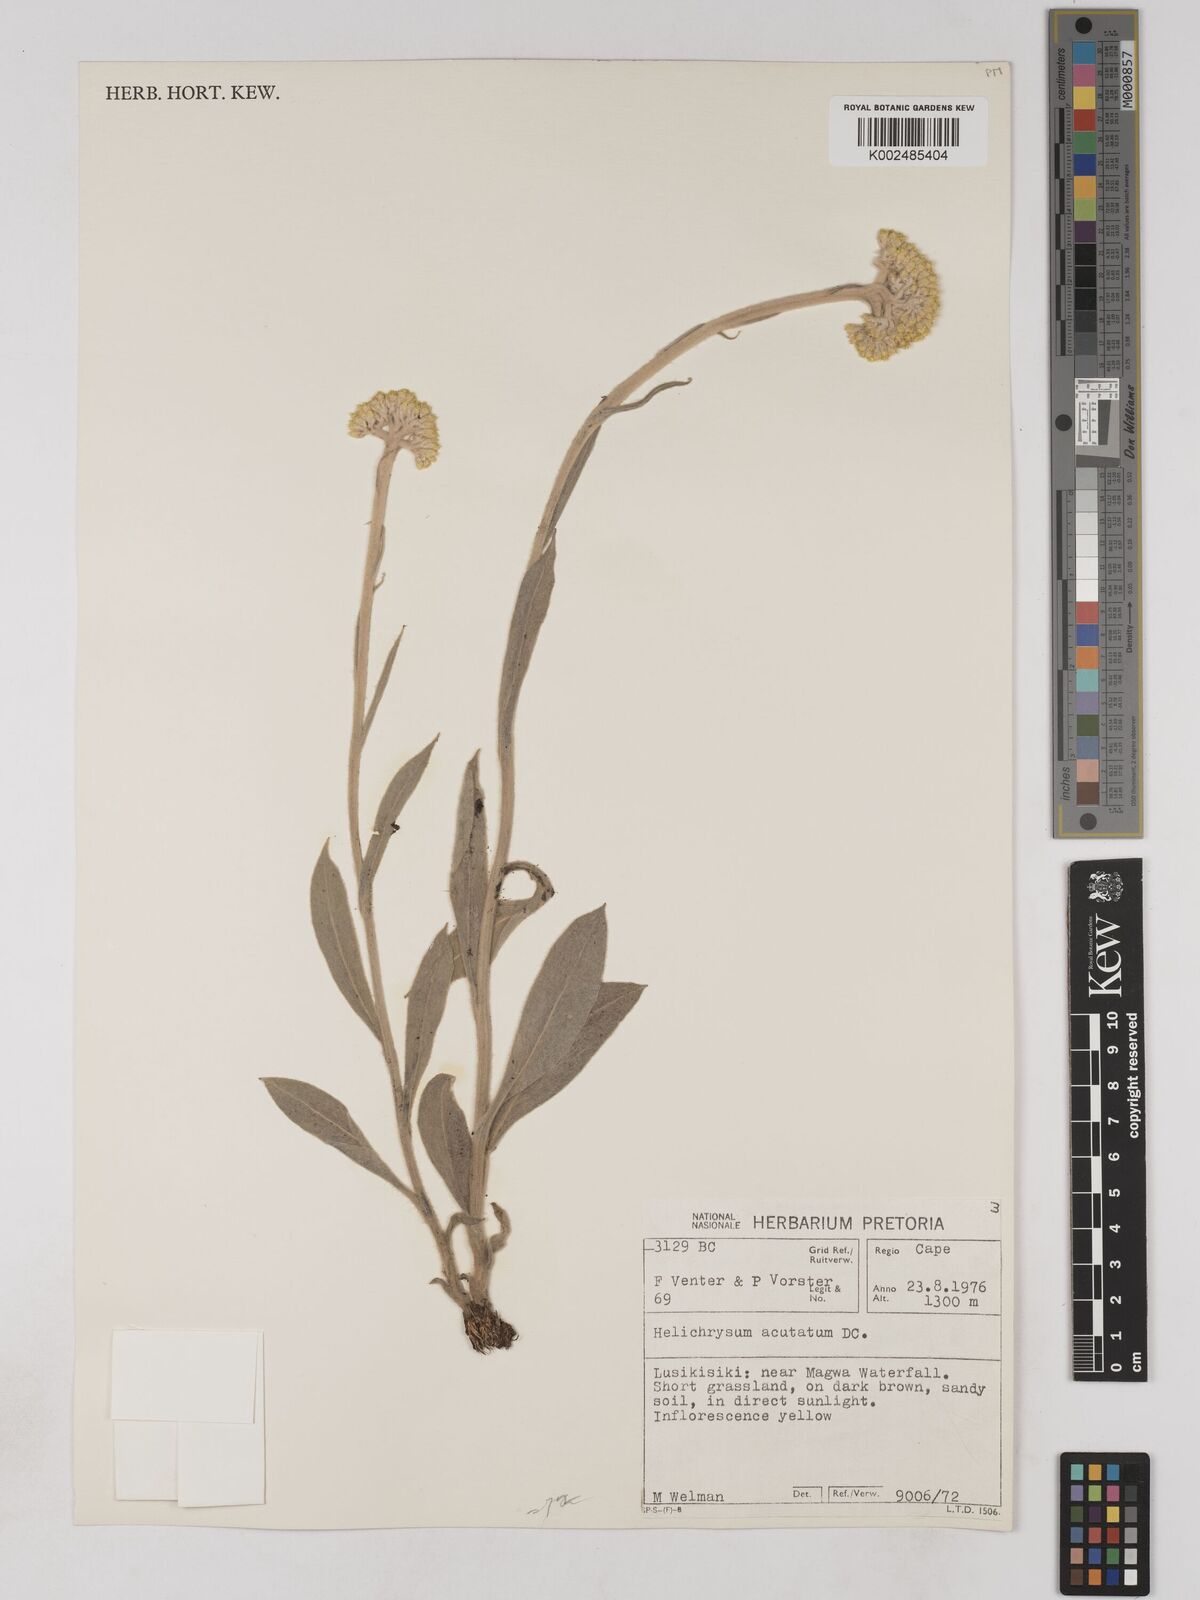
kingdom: Plantae
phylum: Tracheophyta
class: Magnoliopsida
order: Asterales
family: Asteraceae
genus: Helichrysum
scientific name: Helichrysum acutatum
